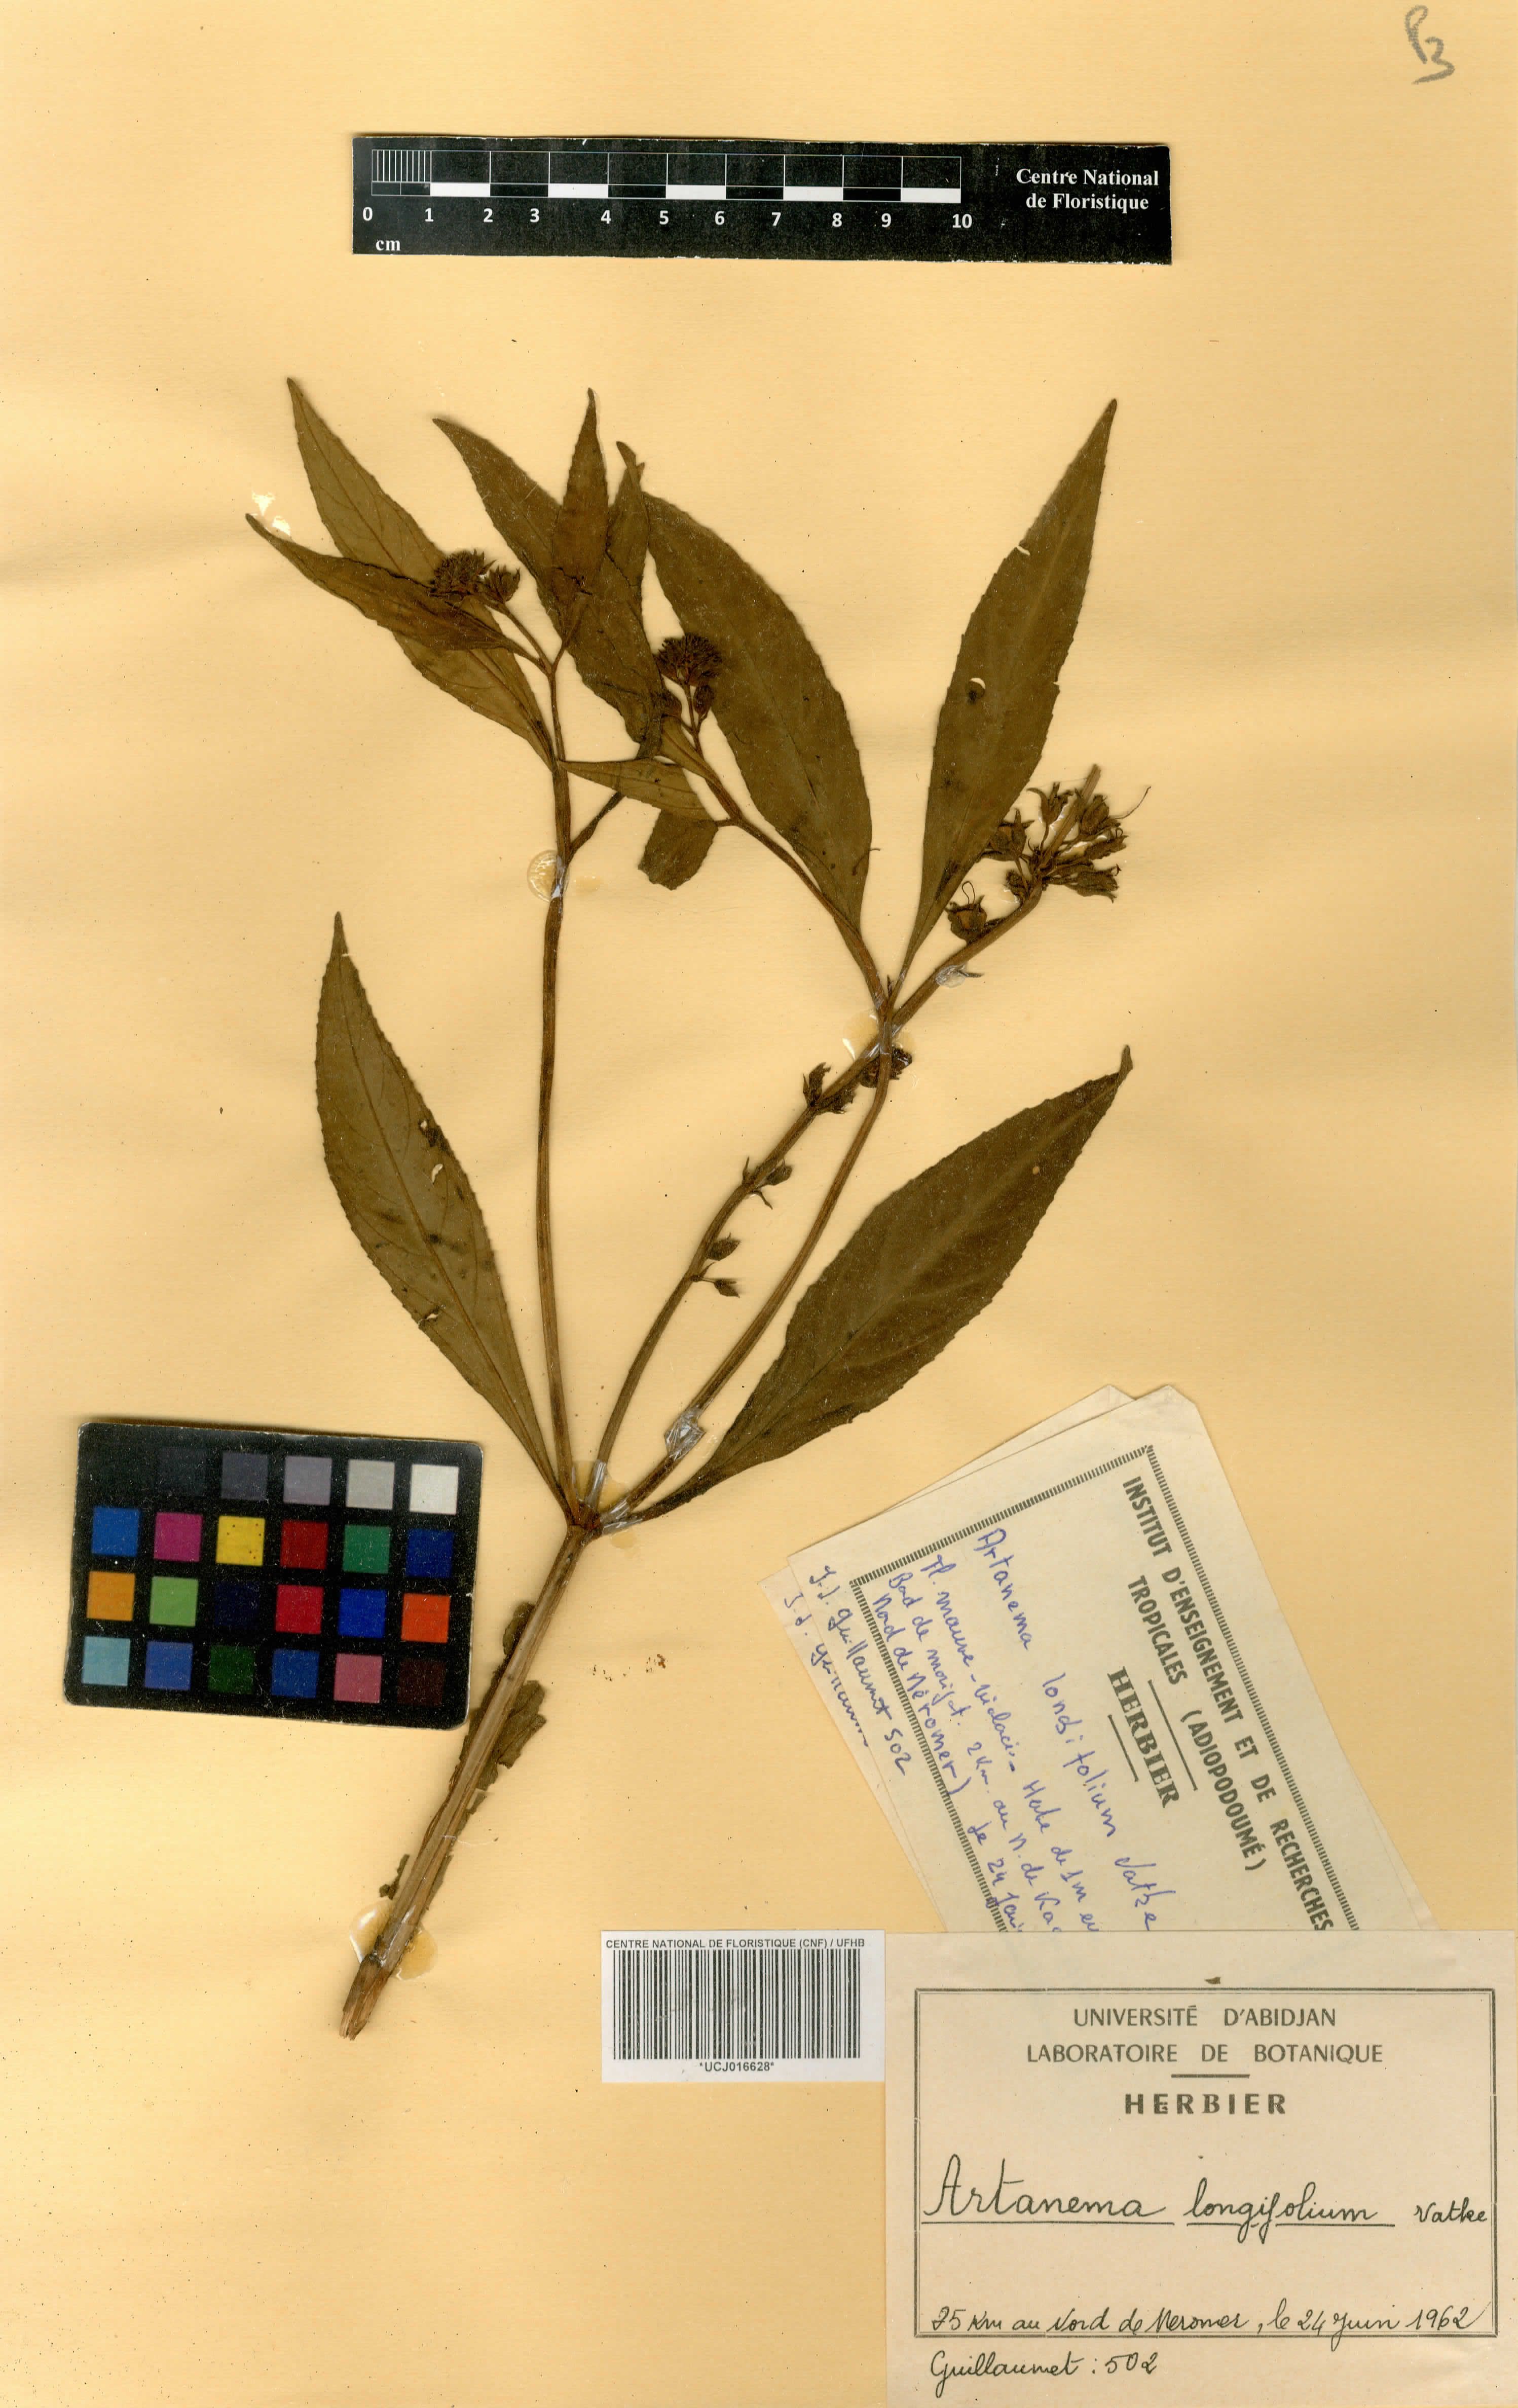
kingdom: Plantae
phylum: Tracheophyta
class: Magnoliopsida
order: Lamiales
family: Linderniaceae
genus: Artanema
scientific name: Artanema longifolium
